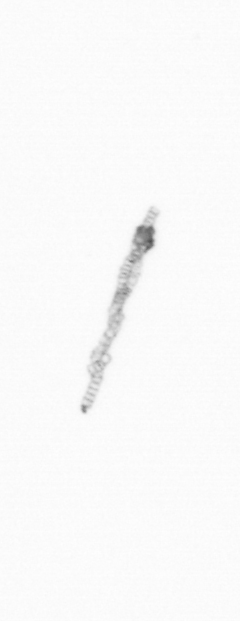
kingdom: Chromista
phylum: Ochrophyta
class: Bacillariophyceae
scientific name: Bacillariophyceae
